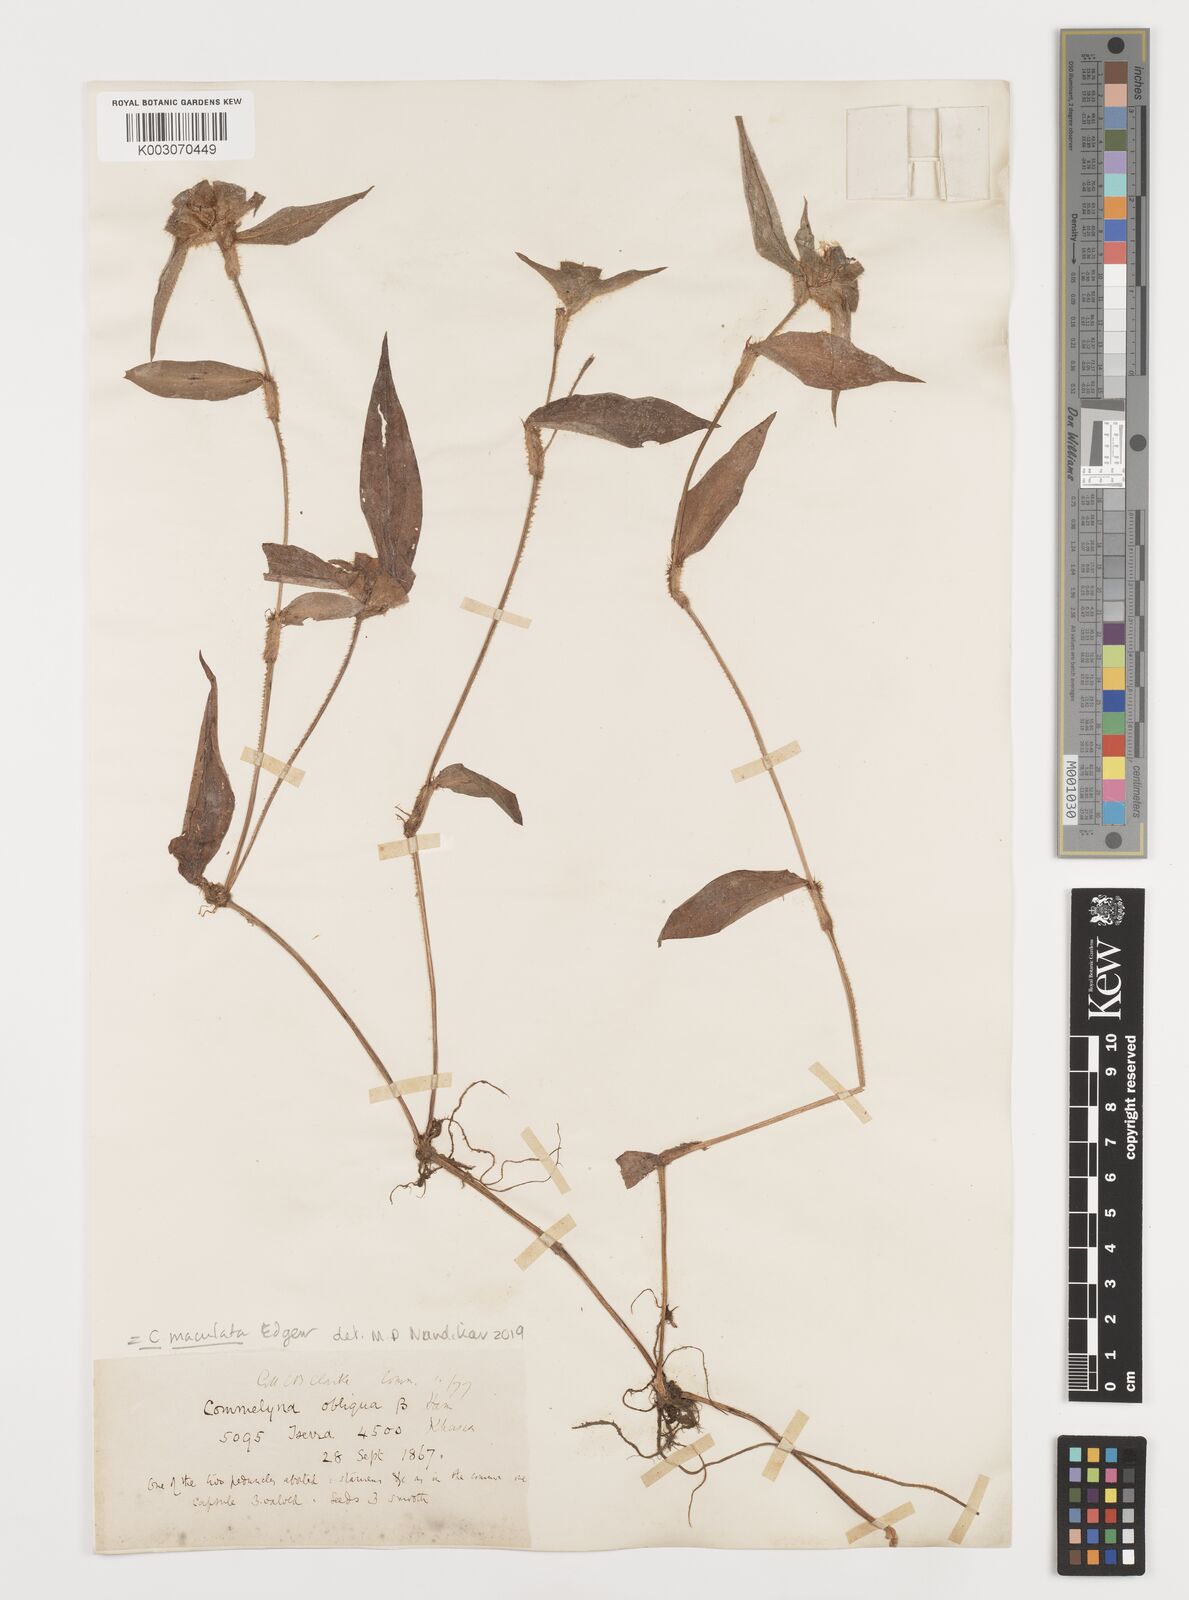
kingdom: Plantae
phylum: Tracheophyta
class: Liliopsida
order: Commelinales
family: Commelinaceae
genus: Commelina
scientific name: Commelina maculata
